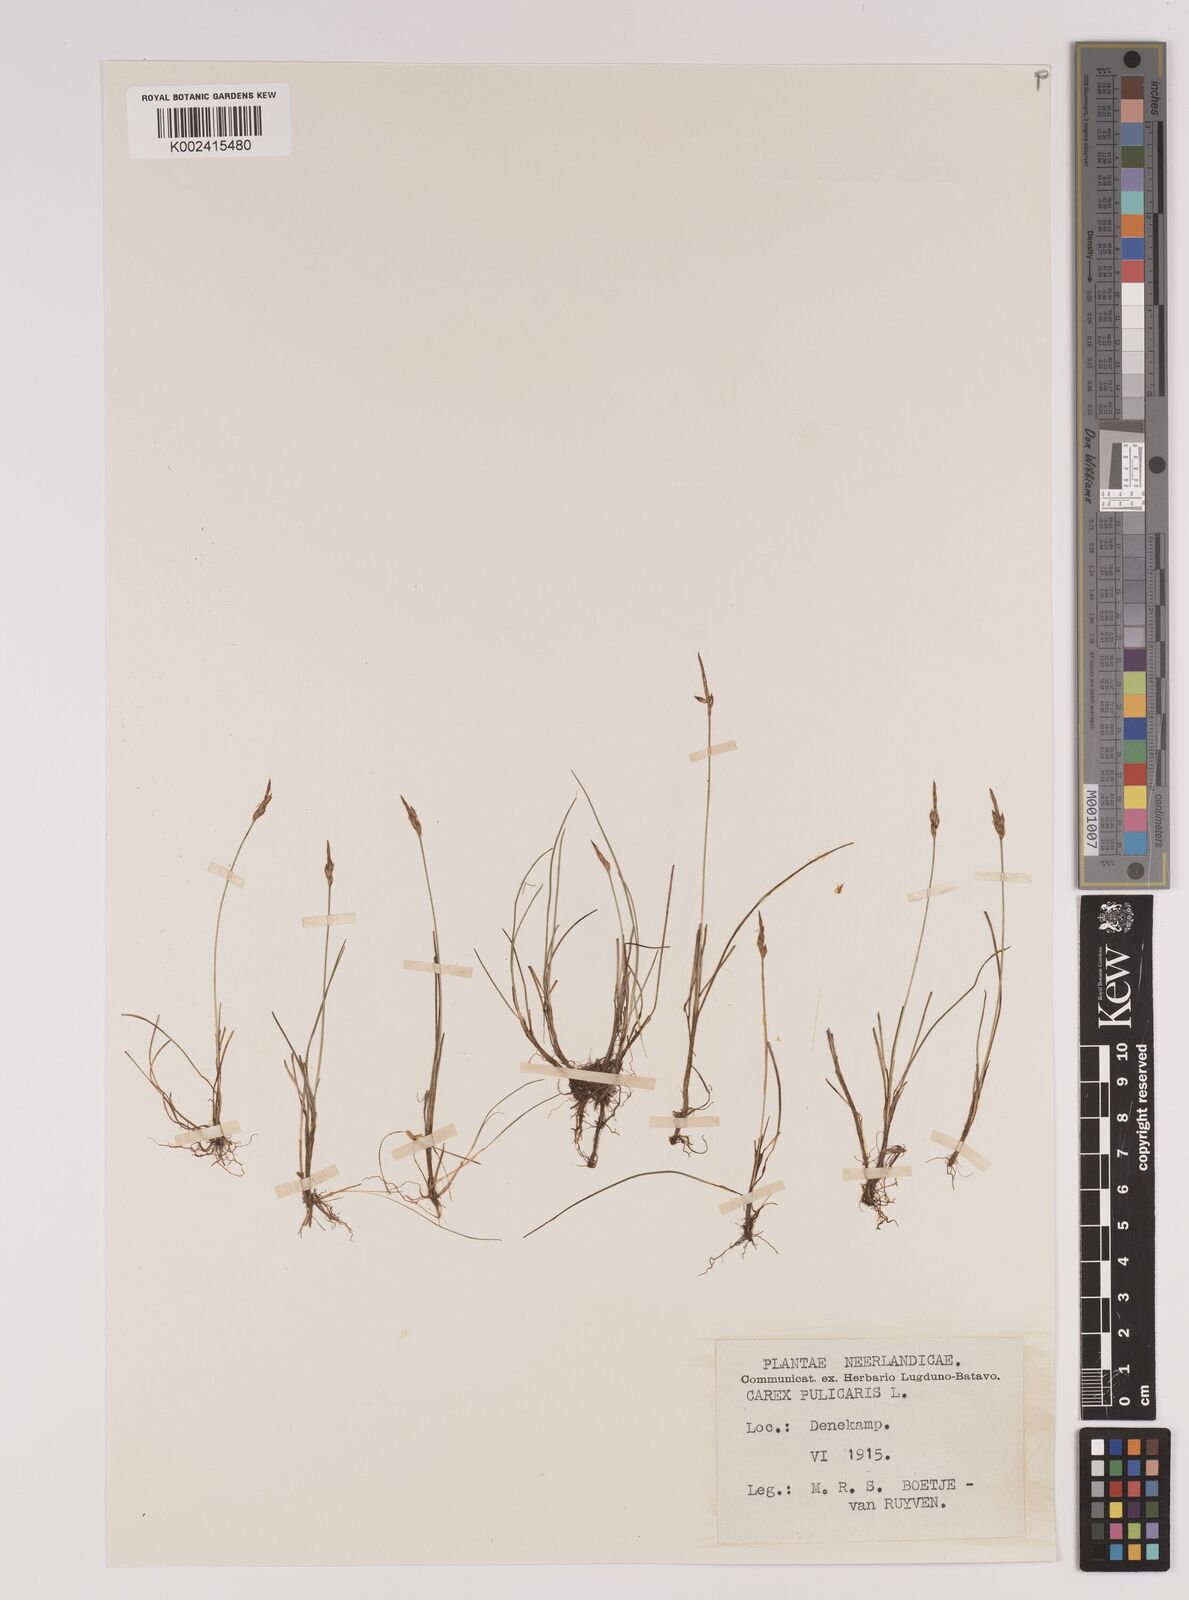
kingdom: Plantae
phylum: Tracheophyta
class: Liliopsida
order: Poales
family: Cyperaceae
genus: Carex
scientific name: Carex pulicaris
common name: Flea sedge
